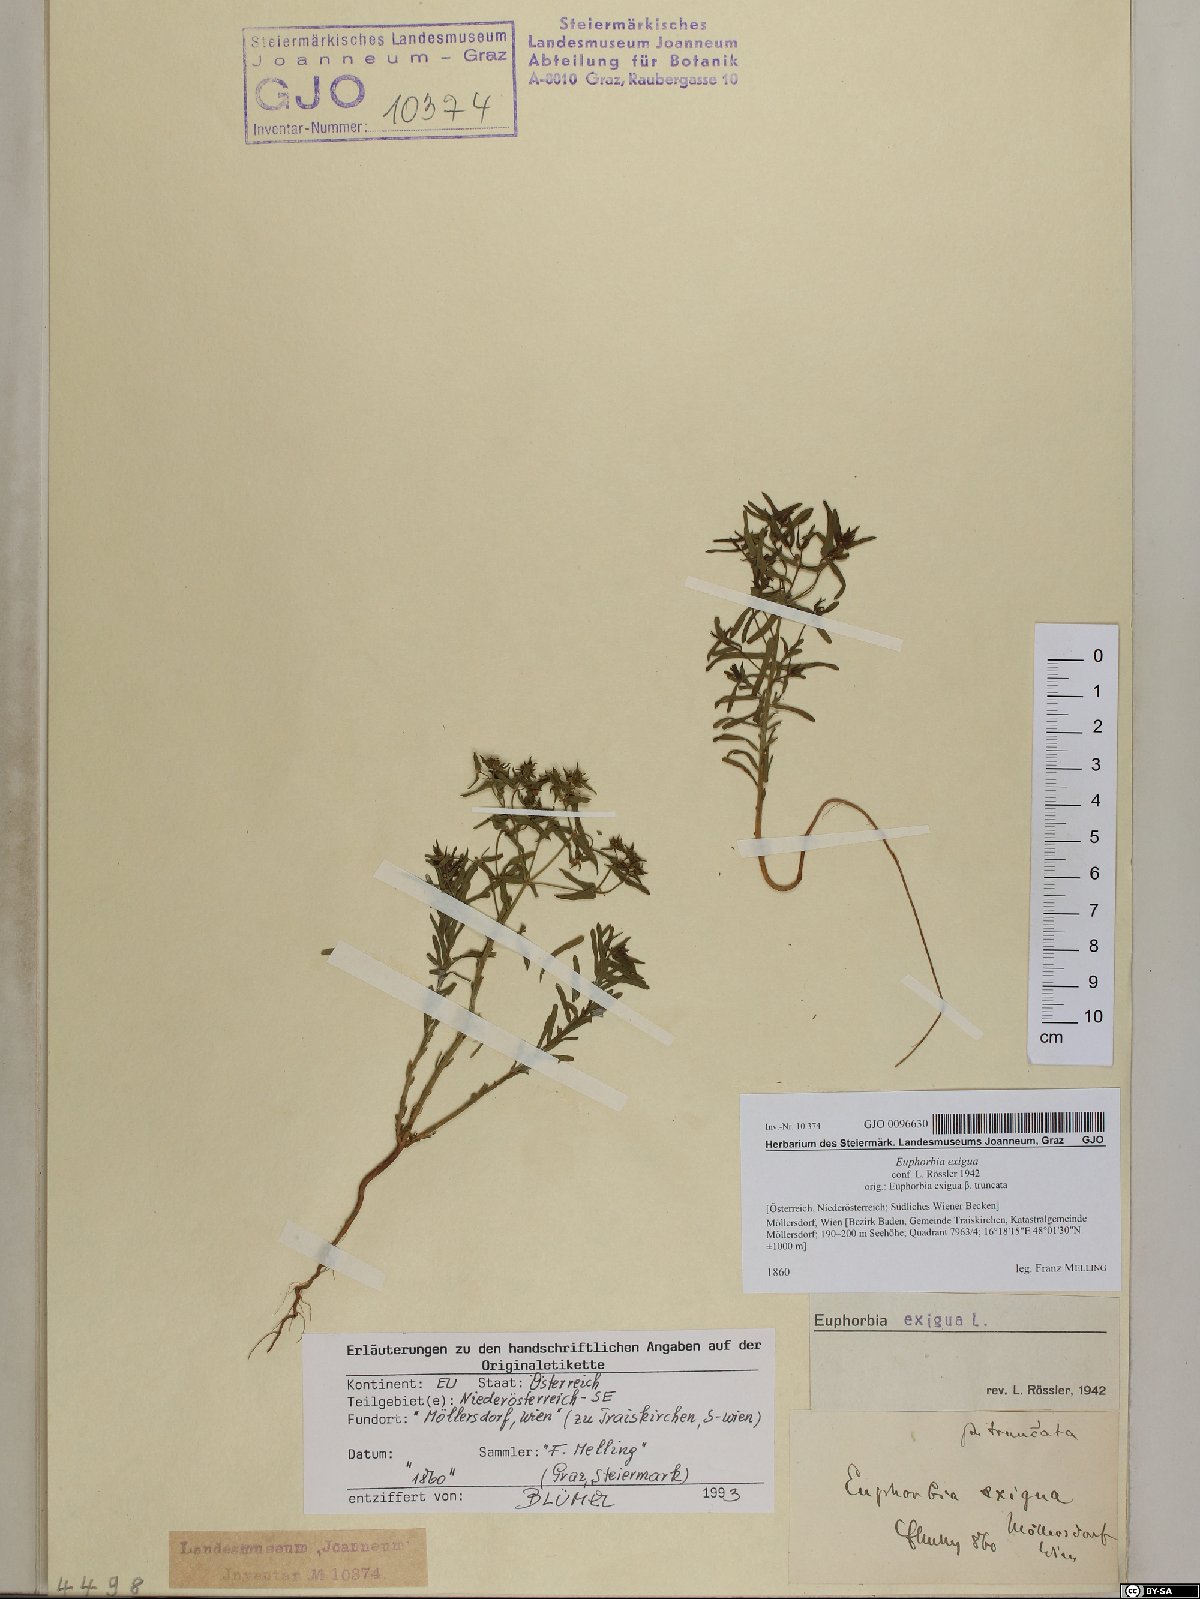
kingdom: Plantae
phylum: Tracheophyta
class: Magnoliopsida
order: Malpighiales
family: Euphorbiaceae
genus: Euphorbia
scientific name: Euphorbia exigua
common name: Dwarf spurge
